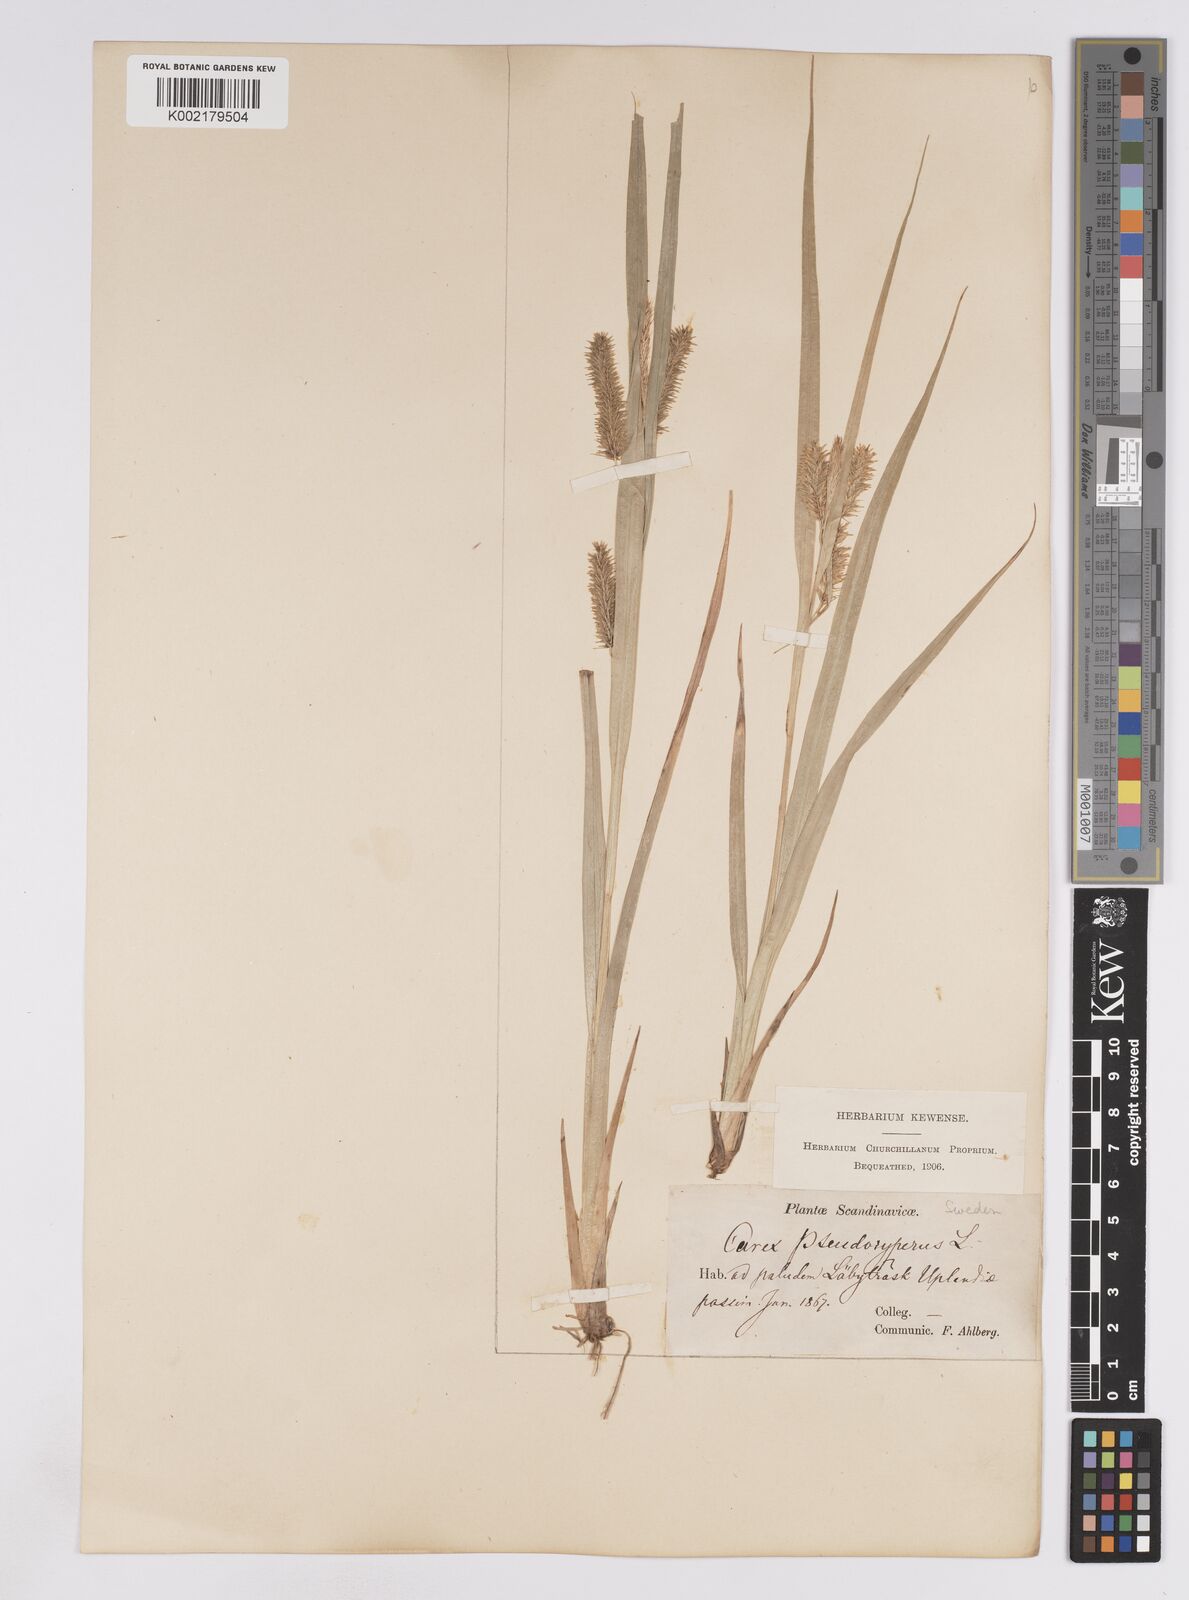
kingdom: Plantae
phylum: Tracheophyta
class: Liliopsida
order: Poales
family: Cyperaceae
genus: Carex
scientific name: Carex pseudocyperus
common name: Cyperus sedge
